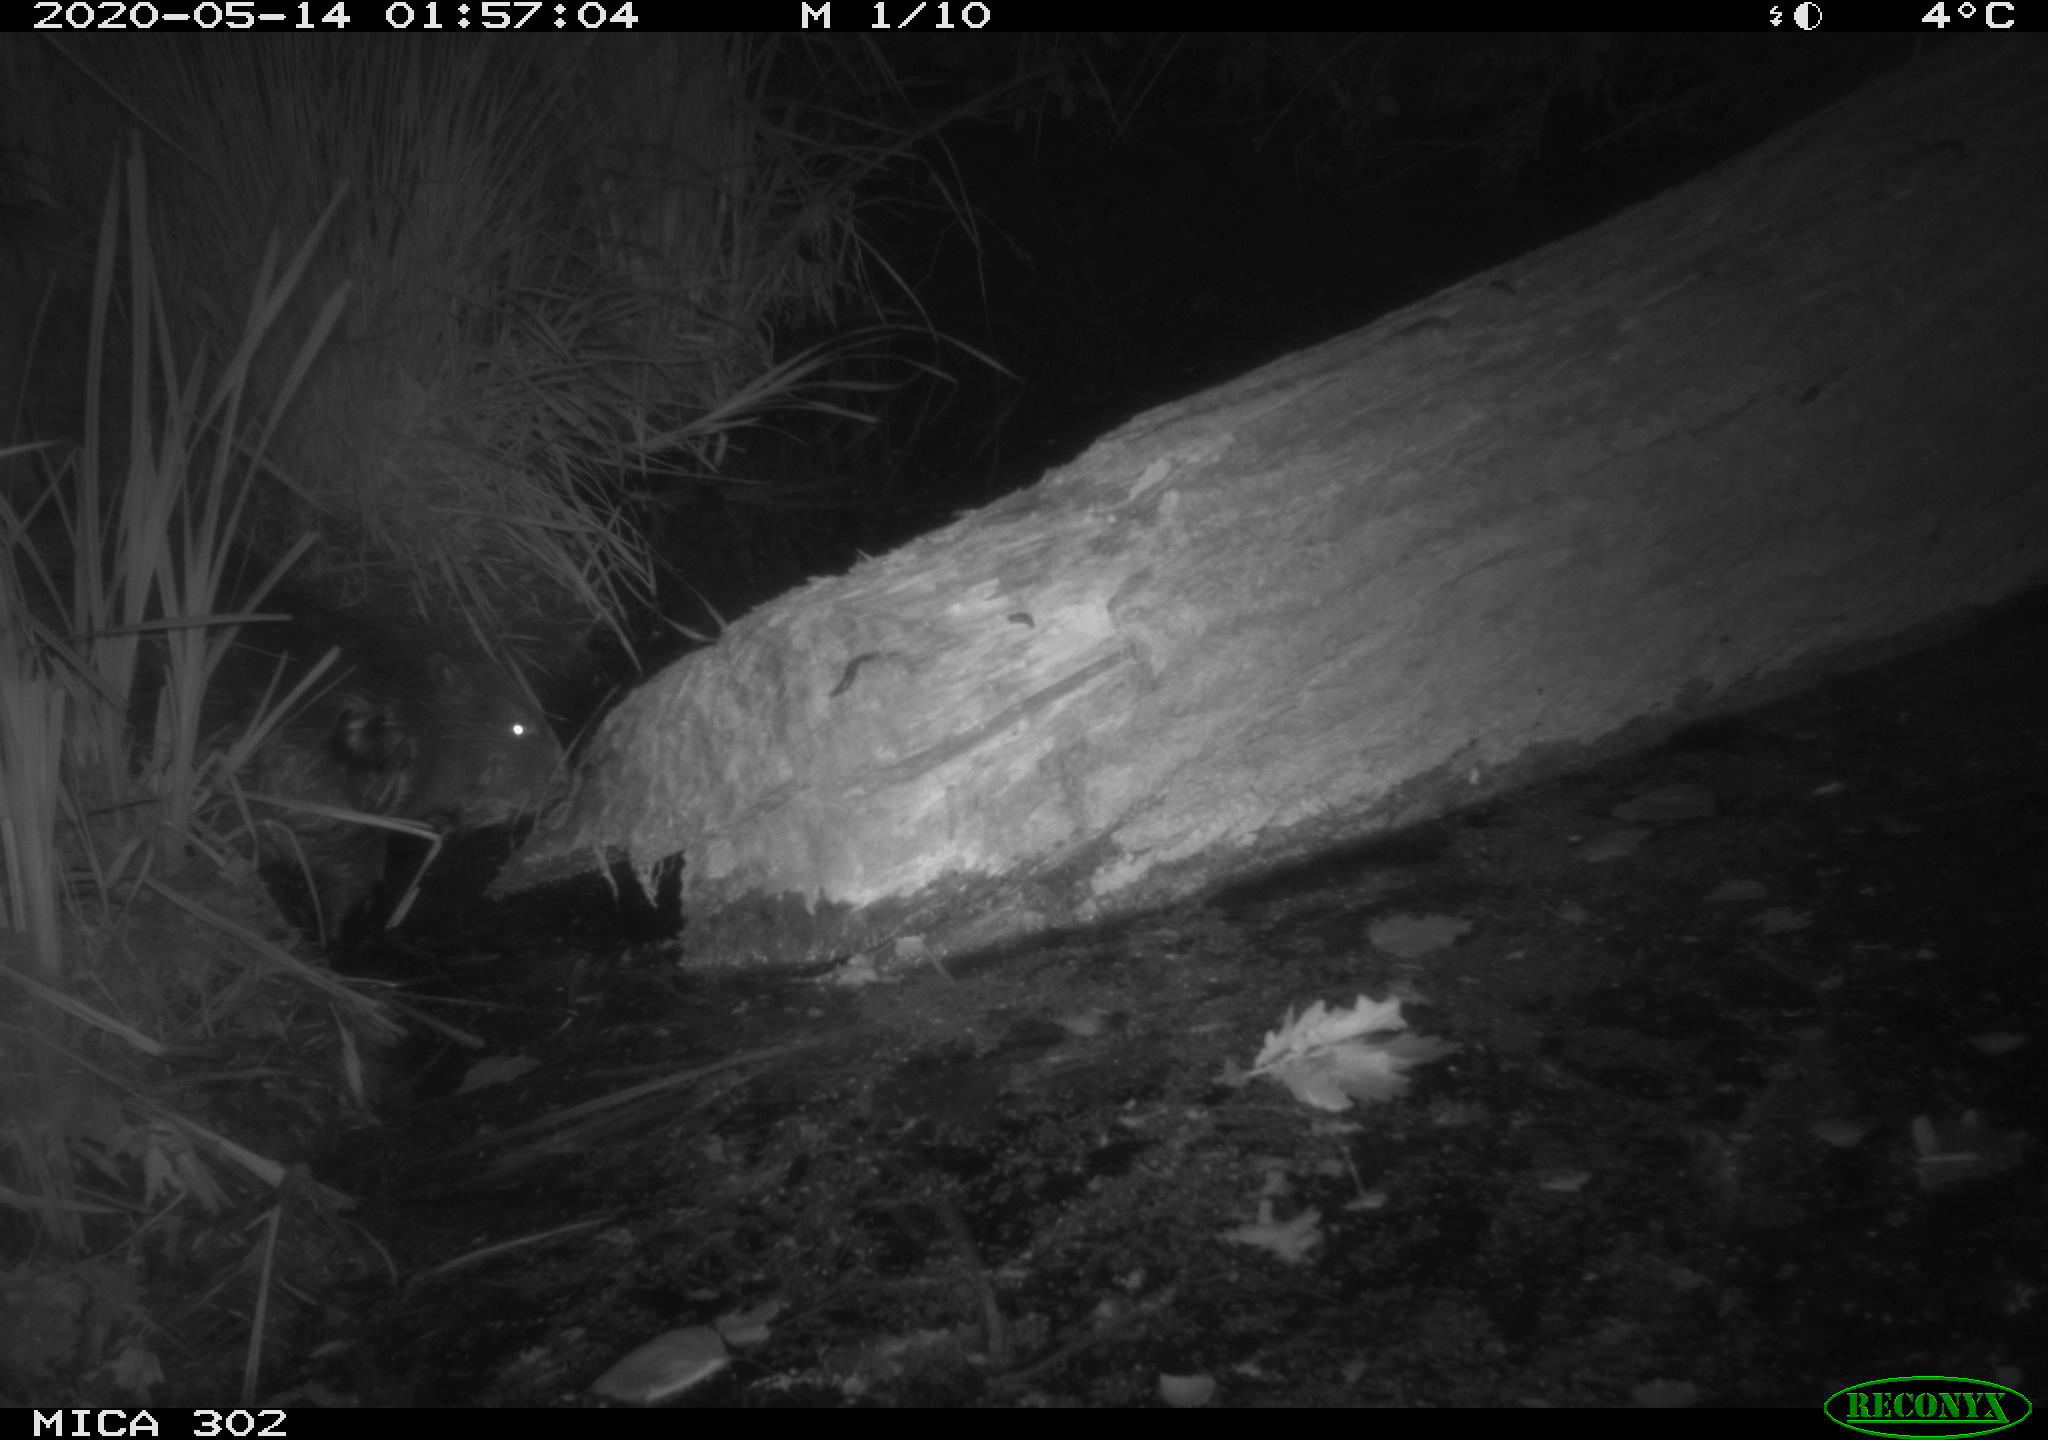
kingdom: Animalia
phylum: Chordata
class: Mammalia
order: Rodentia
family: Castoridae
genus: Castor
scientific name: Castor fiber
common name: Eurasian beaver
